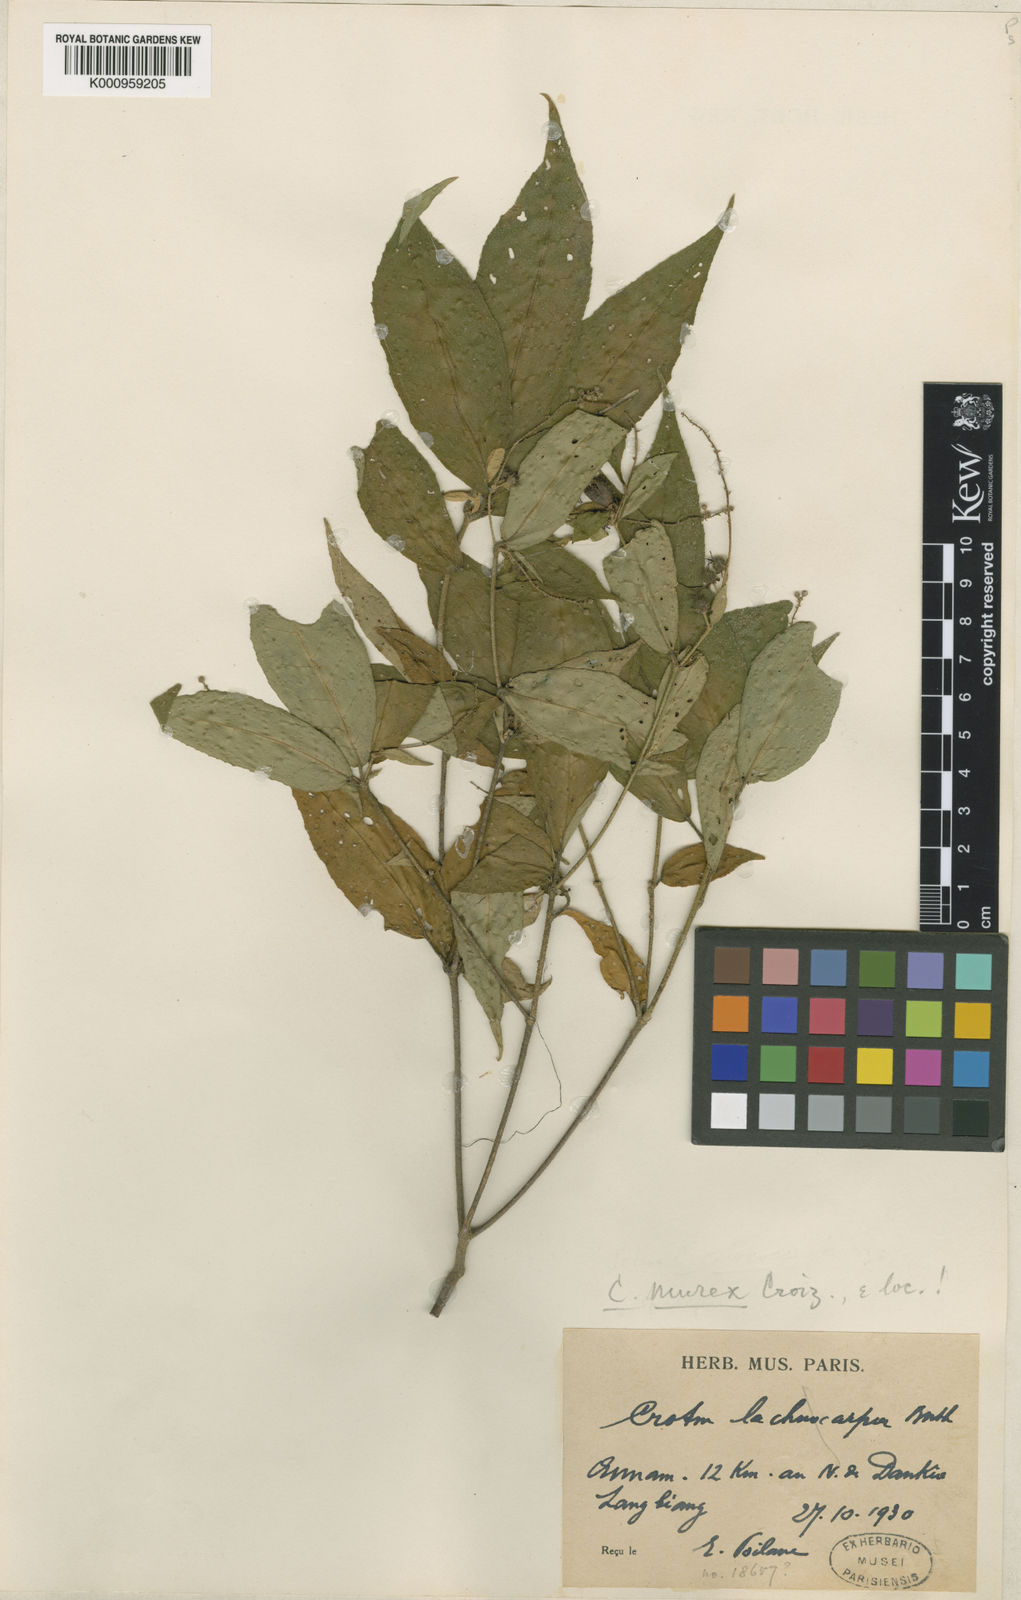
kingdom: Plantae
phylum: Tracheophyta
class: Magnoliopsida
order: Malpighiales
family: Euphorbiaceae
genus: Croton
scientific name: Croton lachnocarpus
